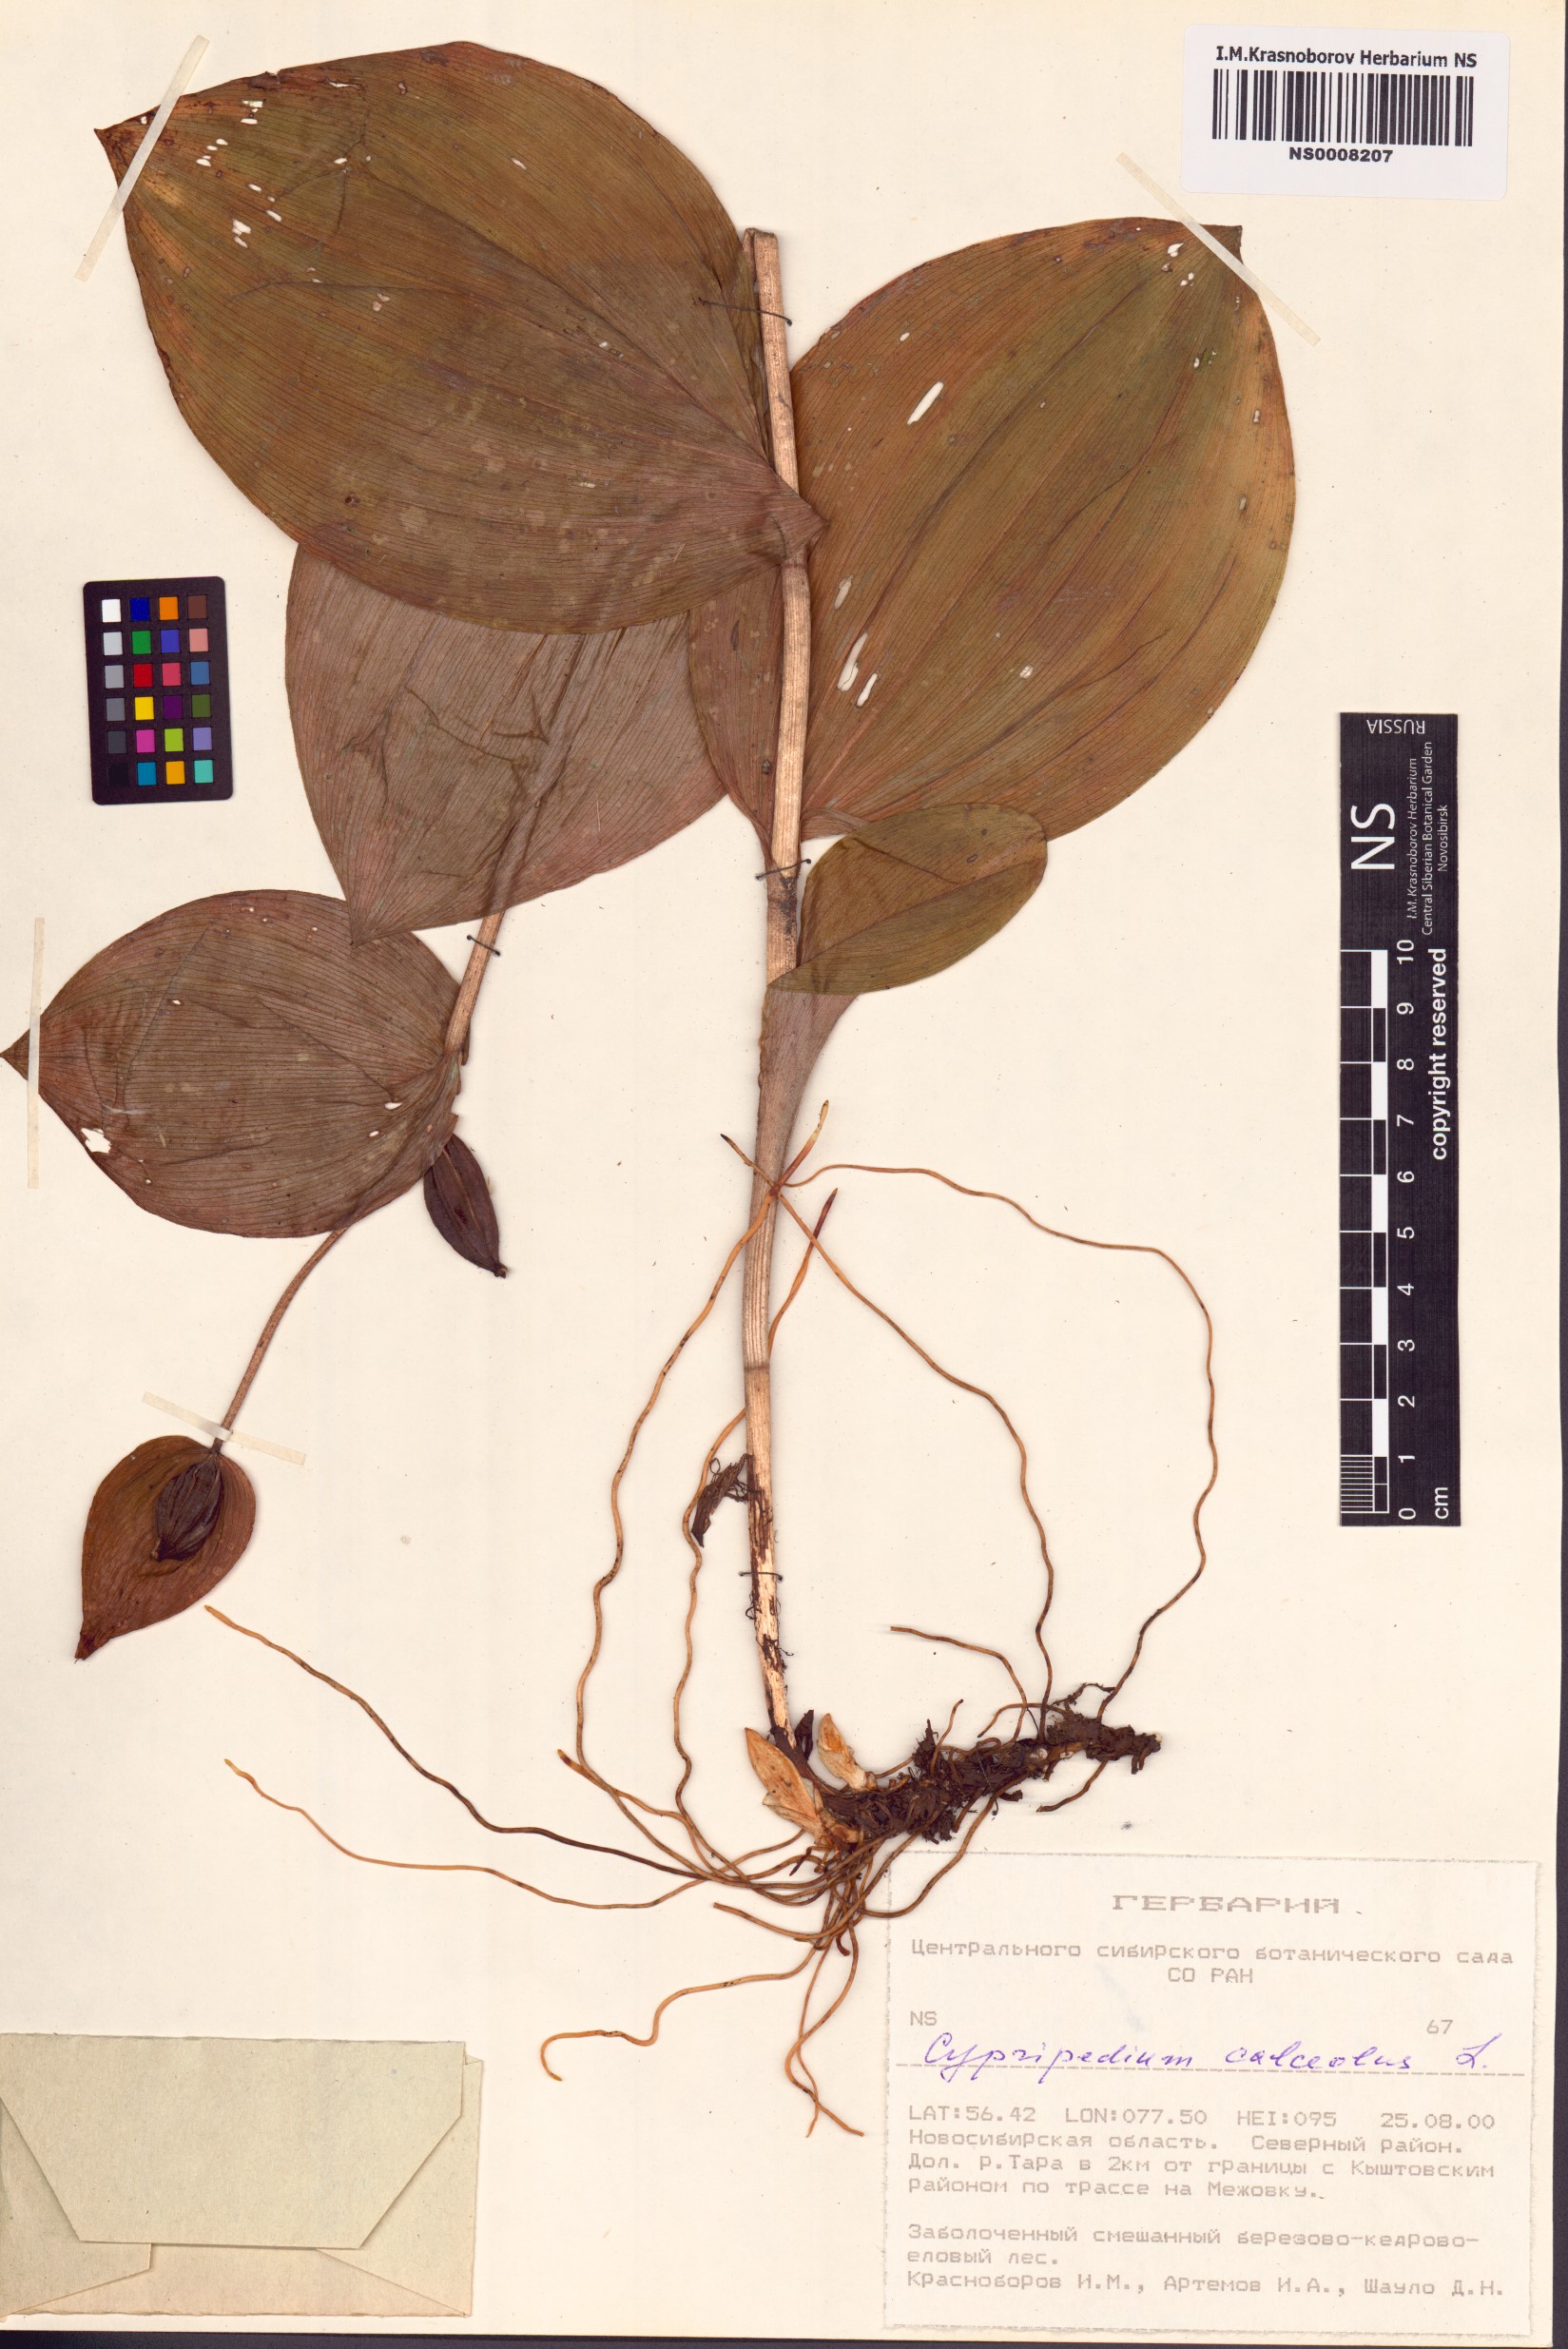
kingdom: Plantae
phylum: Tracheophyta
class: Liliopsida
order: Asparagales
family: Orchidaceae
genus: Cypripedium
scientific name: Cypripedium calceolus
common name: Lady's-slipper
